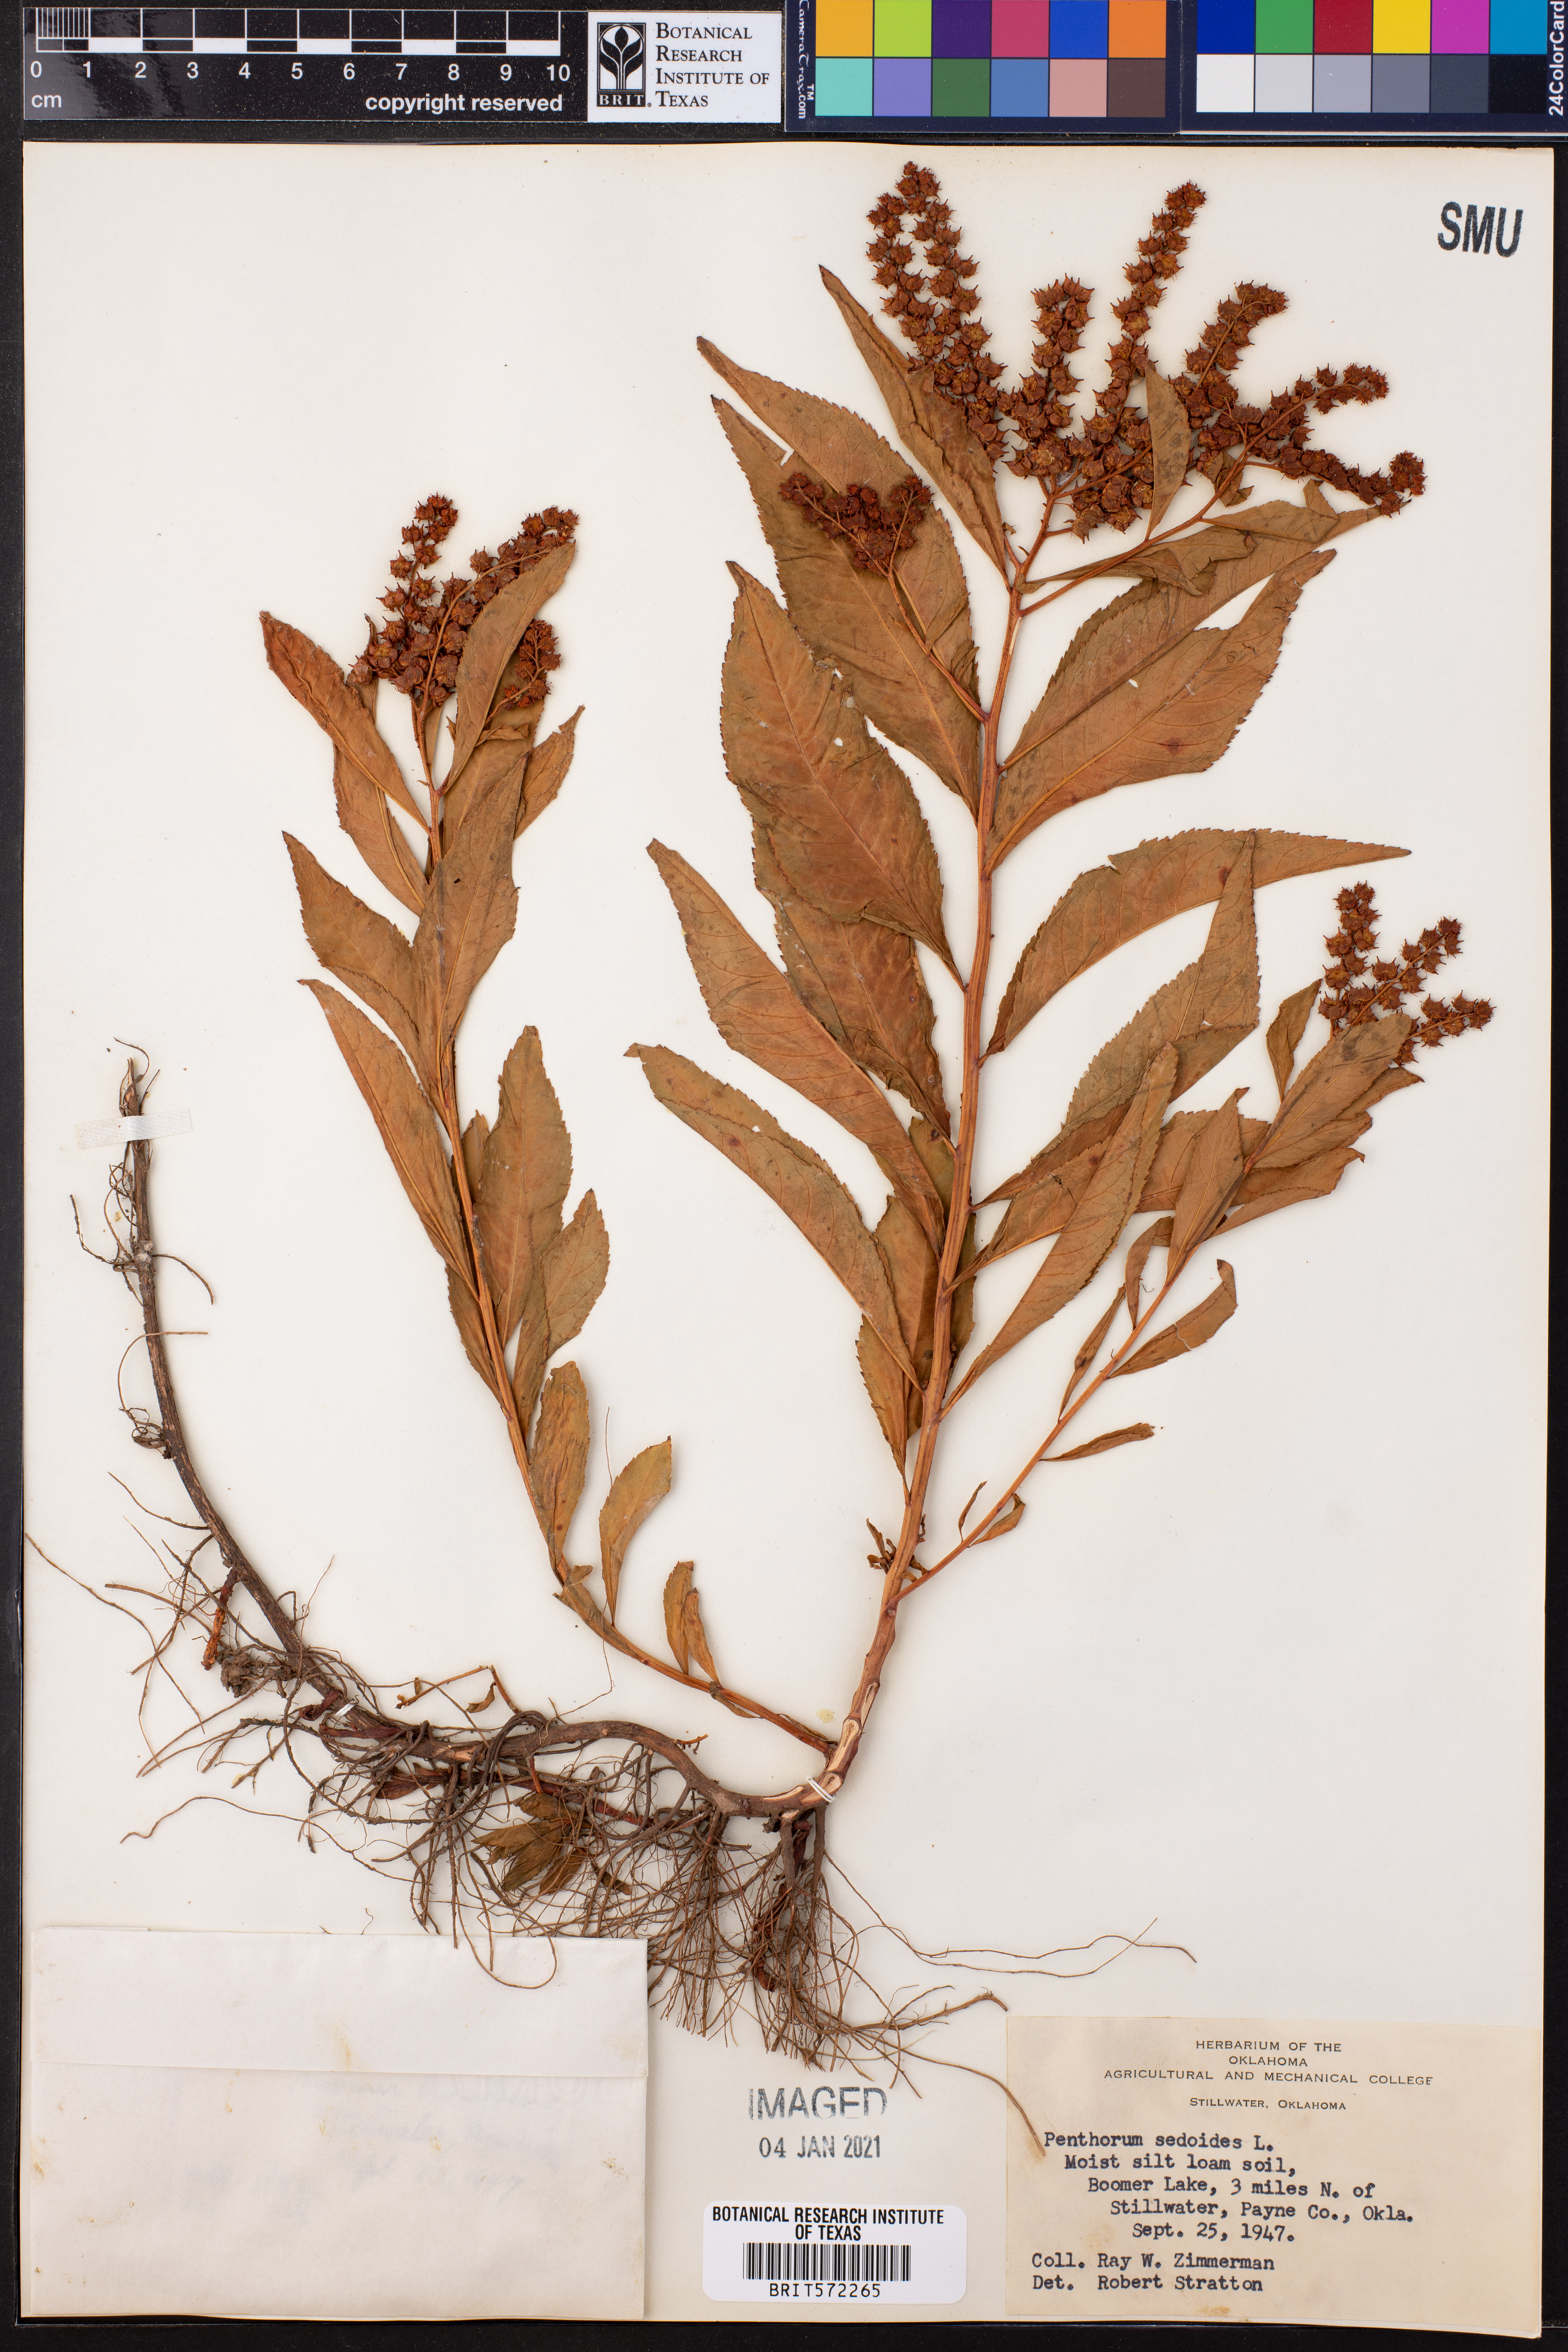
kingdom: Plantae
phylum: Tracheophyta
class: Magnoliopsida
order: Saxifragales
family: Penthoraceae
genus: Penthorum
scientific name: Penthorum sedoides
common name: Ditch stonecrop
